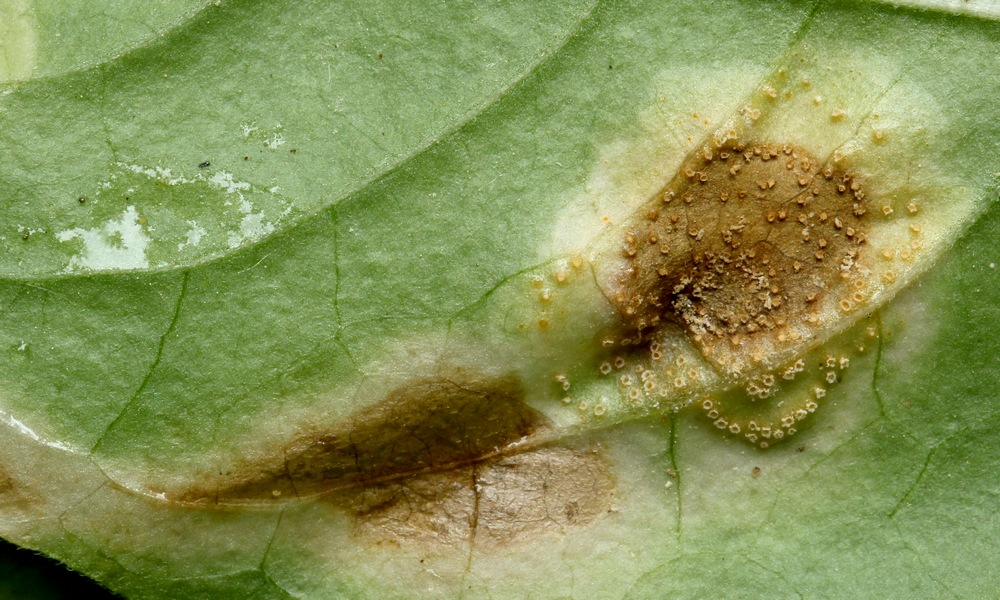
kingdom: Fungi
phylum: Basidiomycota
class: Pucciniomycetes
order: Pucciniales
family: Pucciniaceae
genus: Puccinia
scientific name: Puccinia circaeae-caricis
